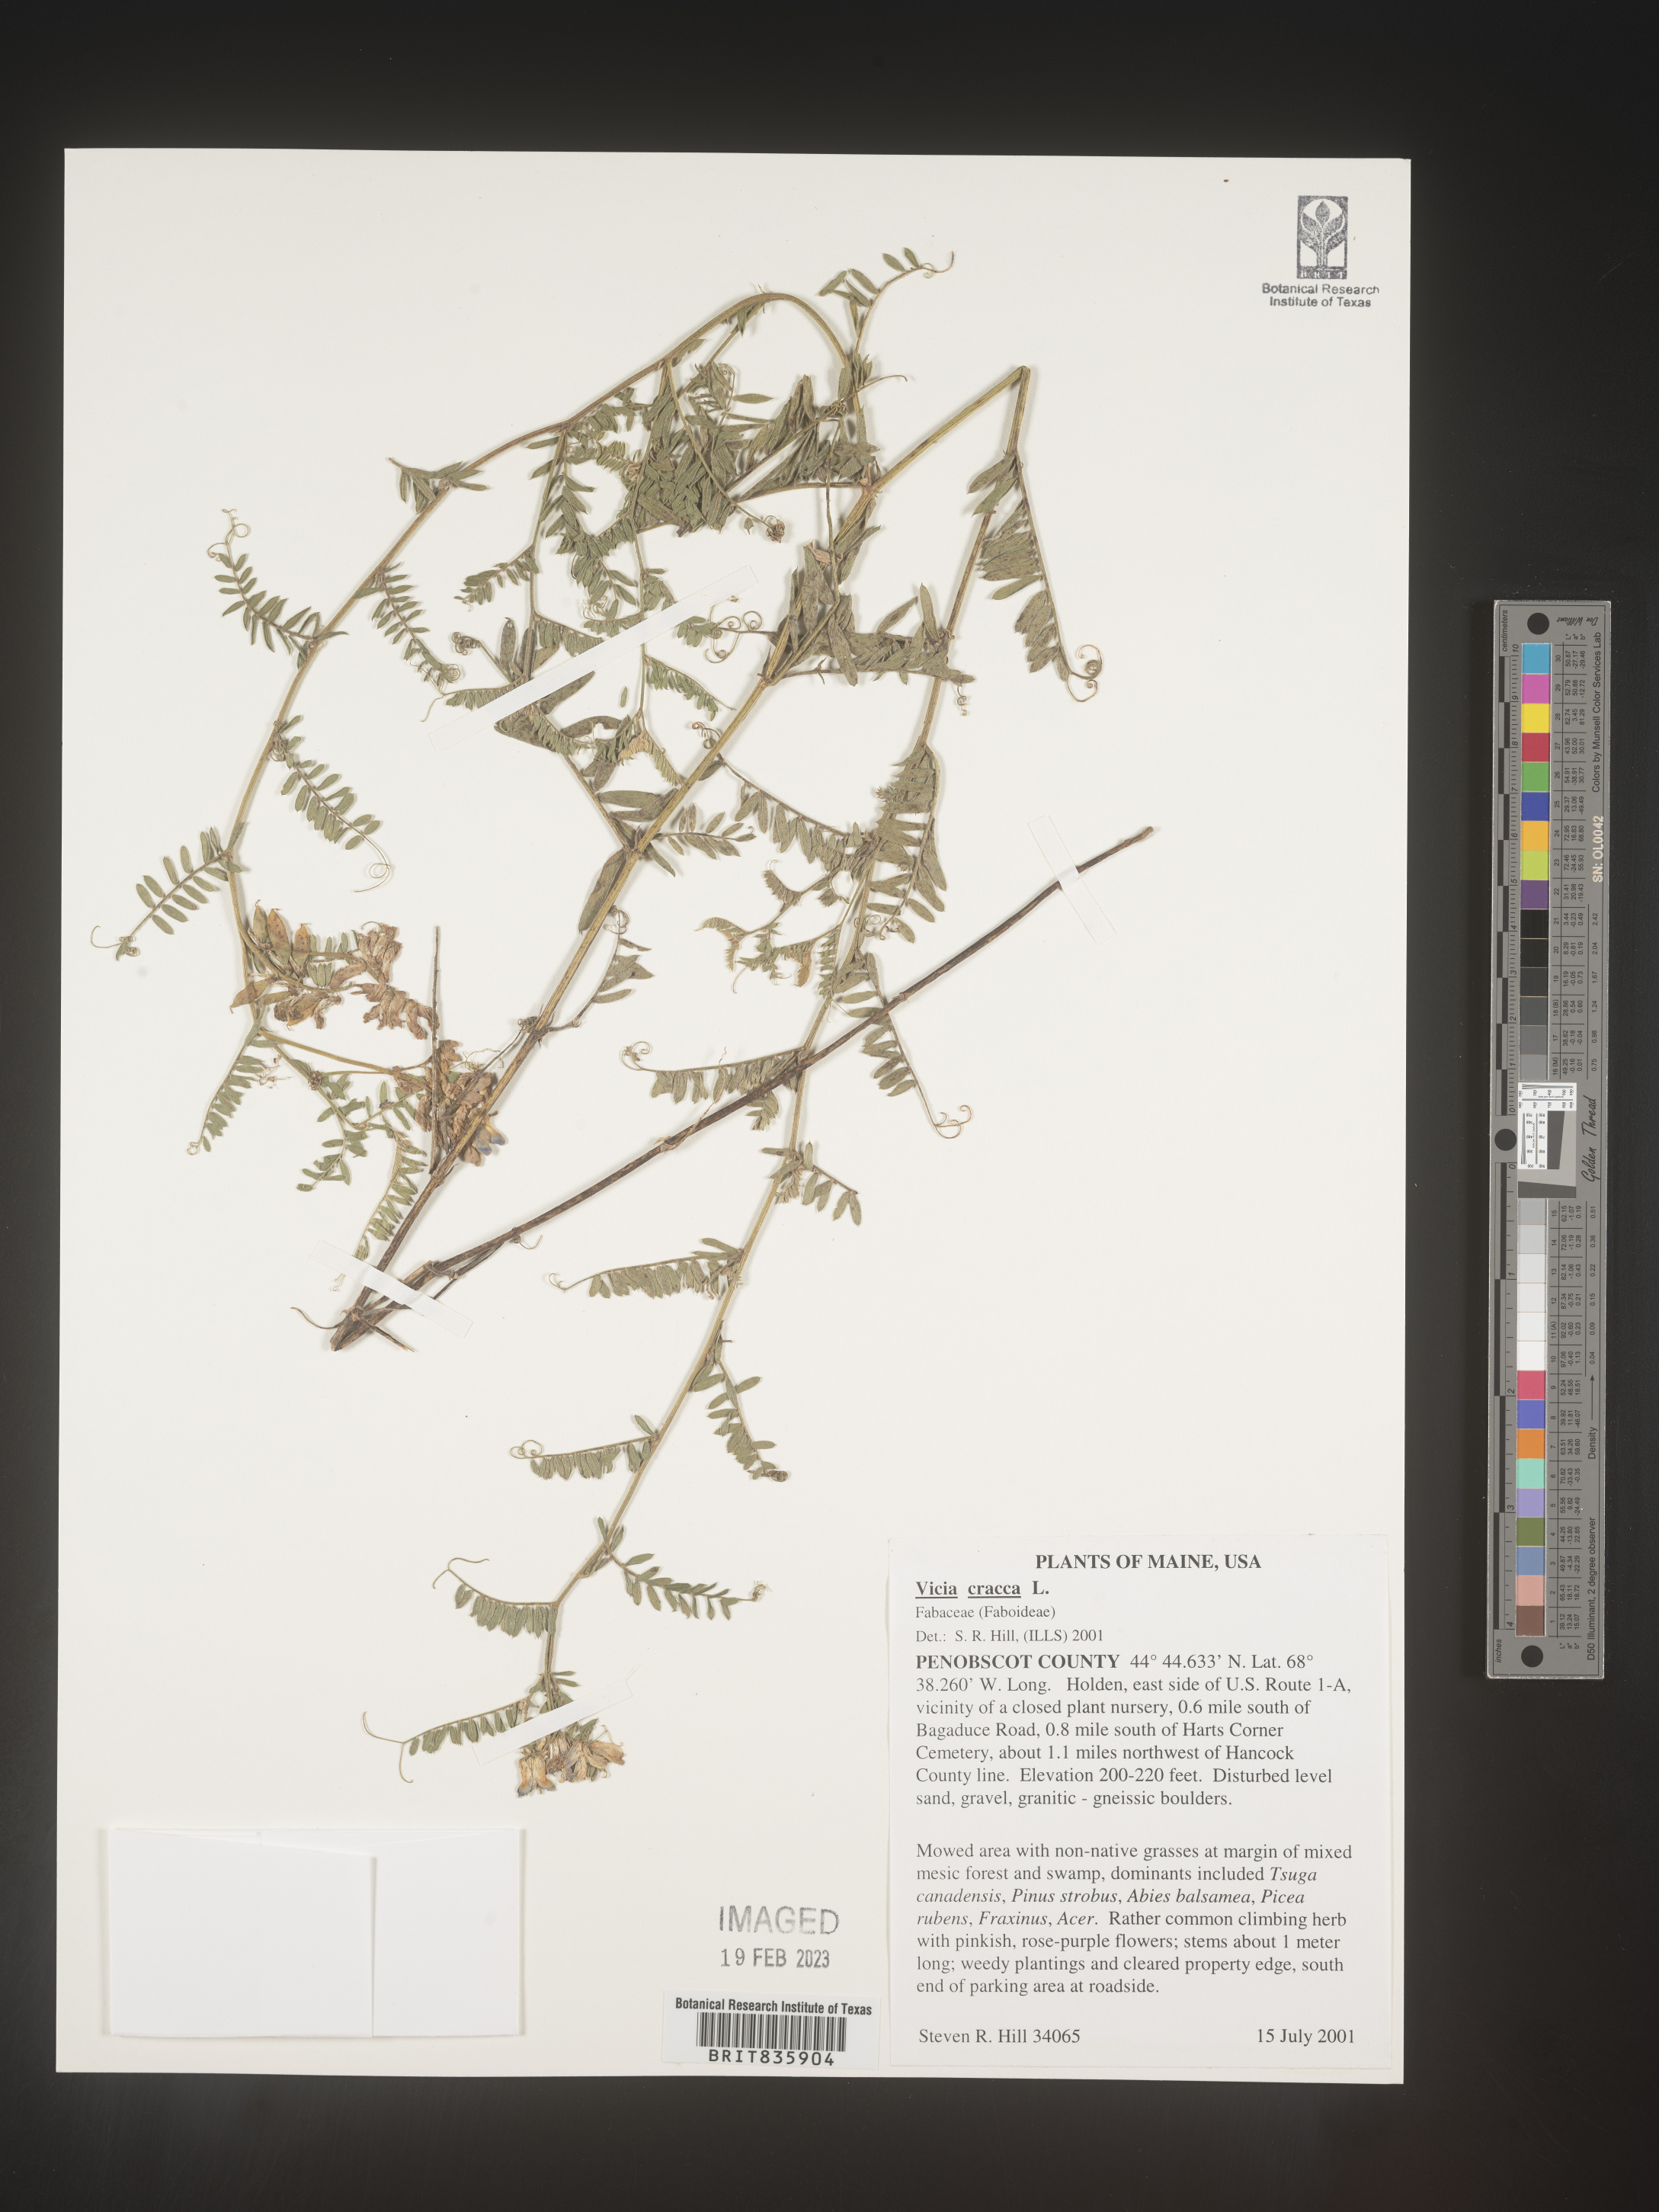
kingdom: Plantae
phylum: Tracheophyta
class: Magnoliopsida
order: Fabales
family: Fabaceae
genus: Vicia
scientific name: Vicia cracca
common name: Bird vetch
